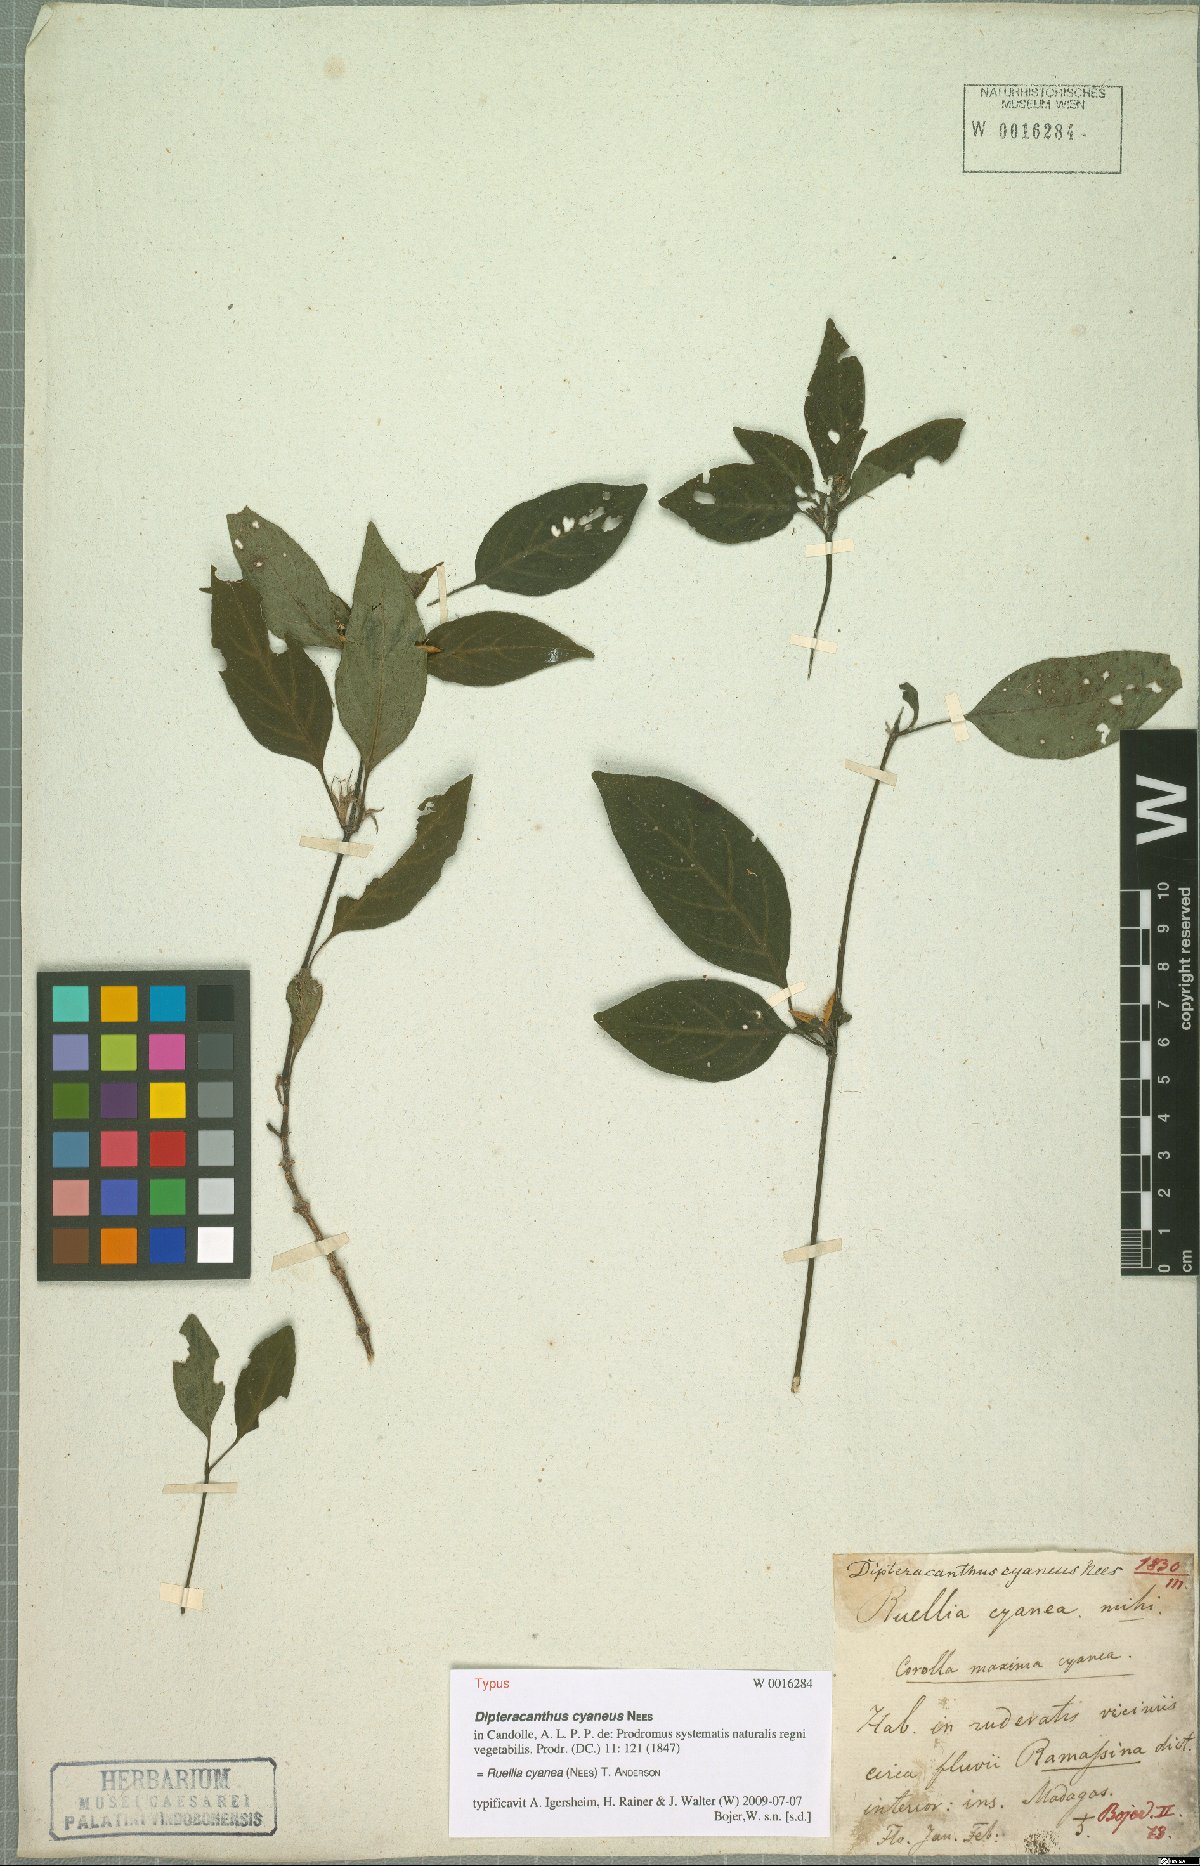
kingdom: Plantae
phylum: Tracheophyta
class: Magnoliopsida
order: Lamiales
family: Acanthaceae
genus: Ruellia
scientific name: Ruellia cyanea
